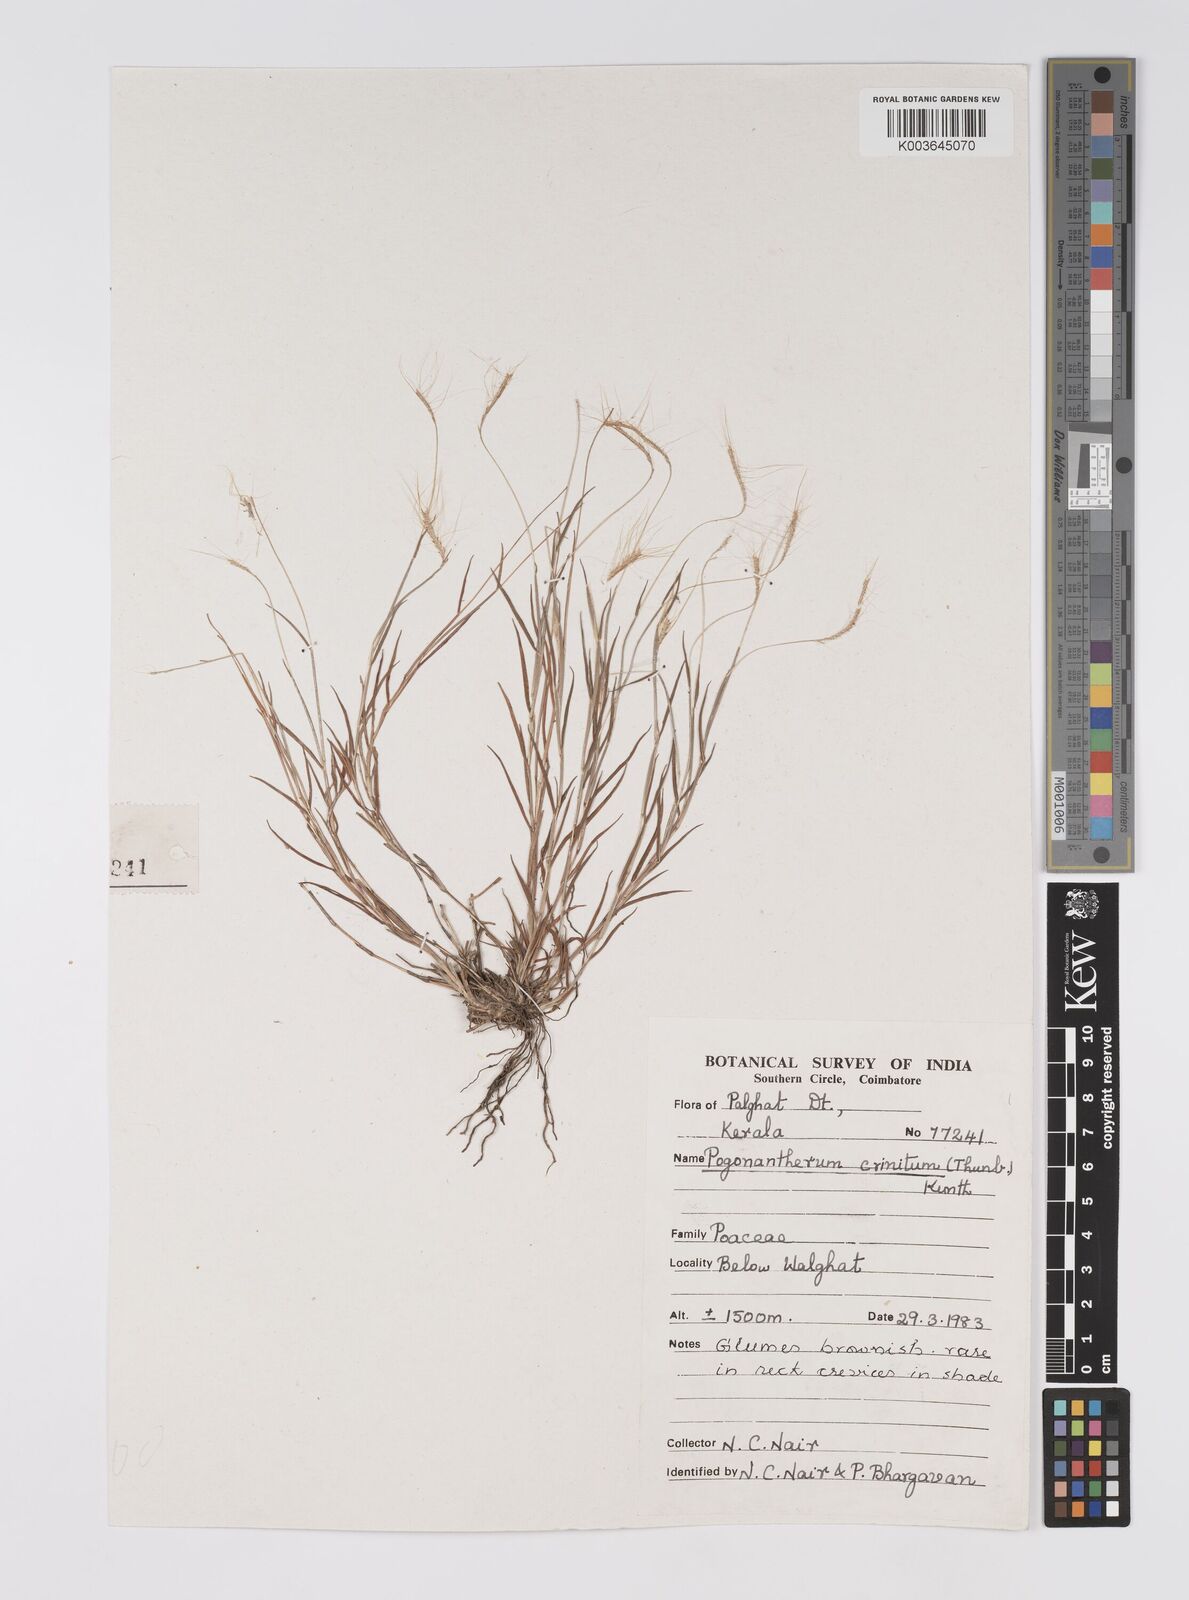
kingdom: Plantae
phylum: Tracheophyta
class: Liliopsida
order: Poales
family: Poaceae
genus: Pogonatherum
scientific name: Pogonatherum crinitum
